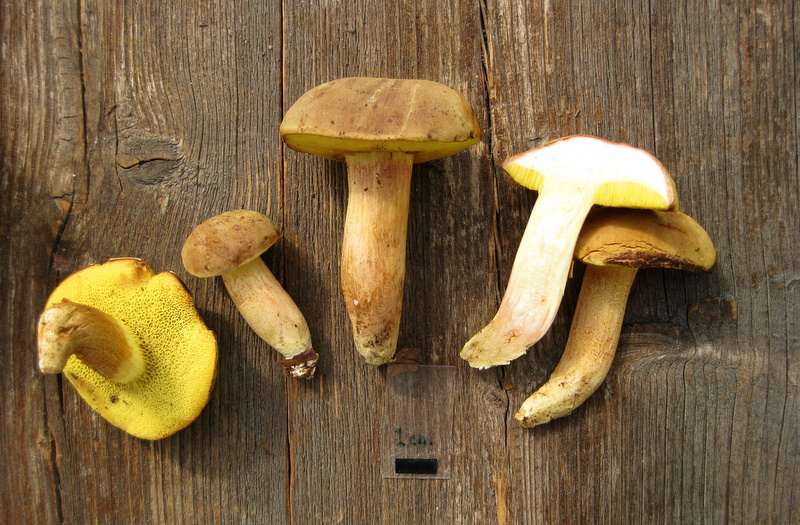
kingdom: Fungi
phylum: Basidiomycota
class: Agaricomycetes
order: Boletales
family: Boletaceae
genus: Xerocomus
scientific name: Xerocomus subtomentosus
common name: filtet rørhat
